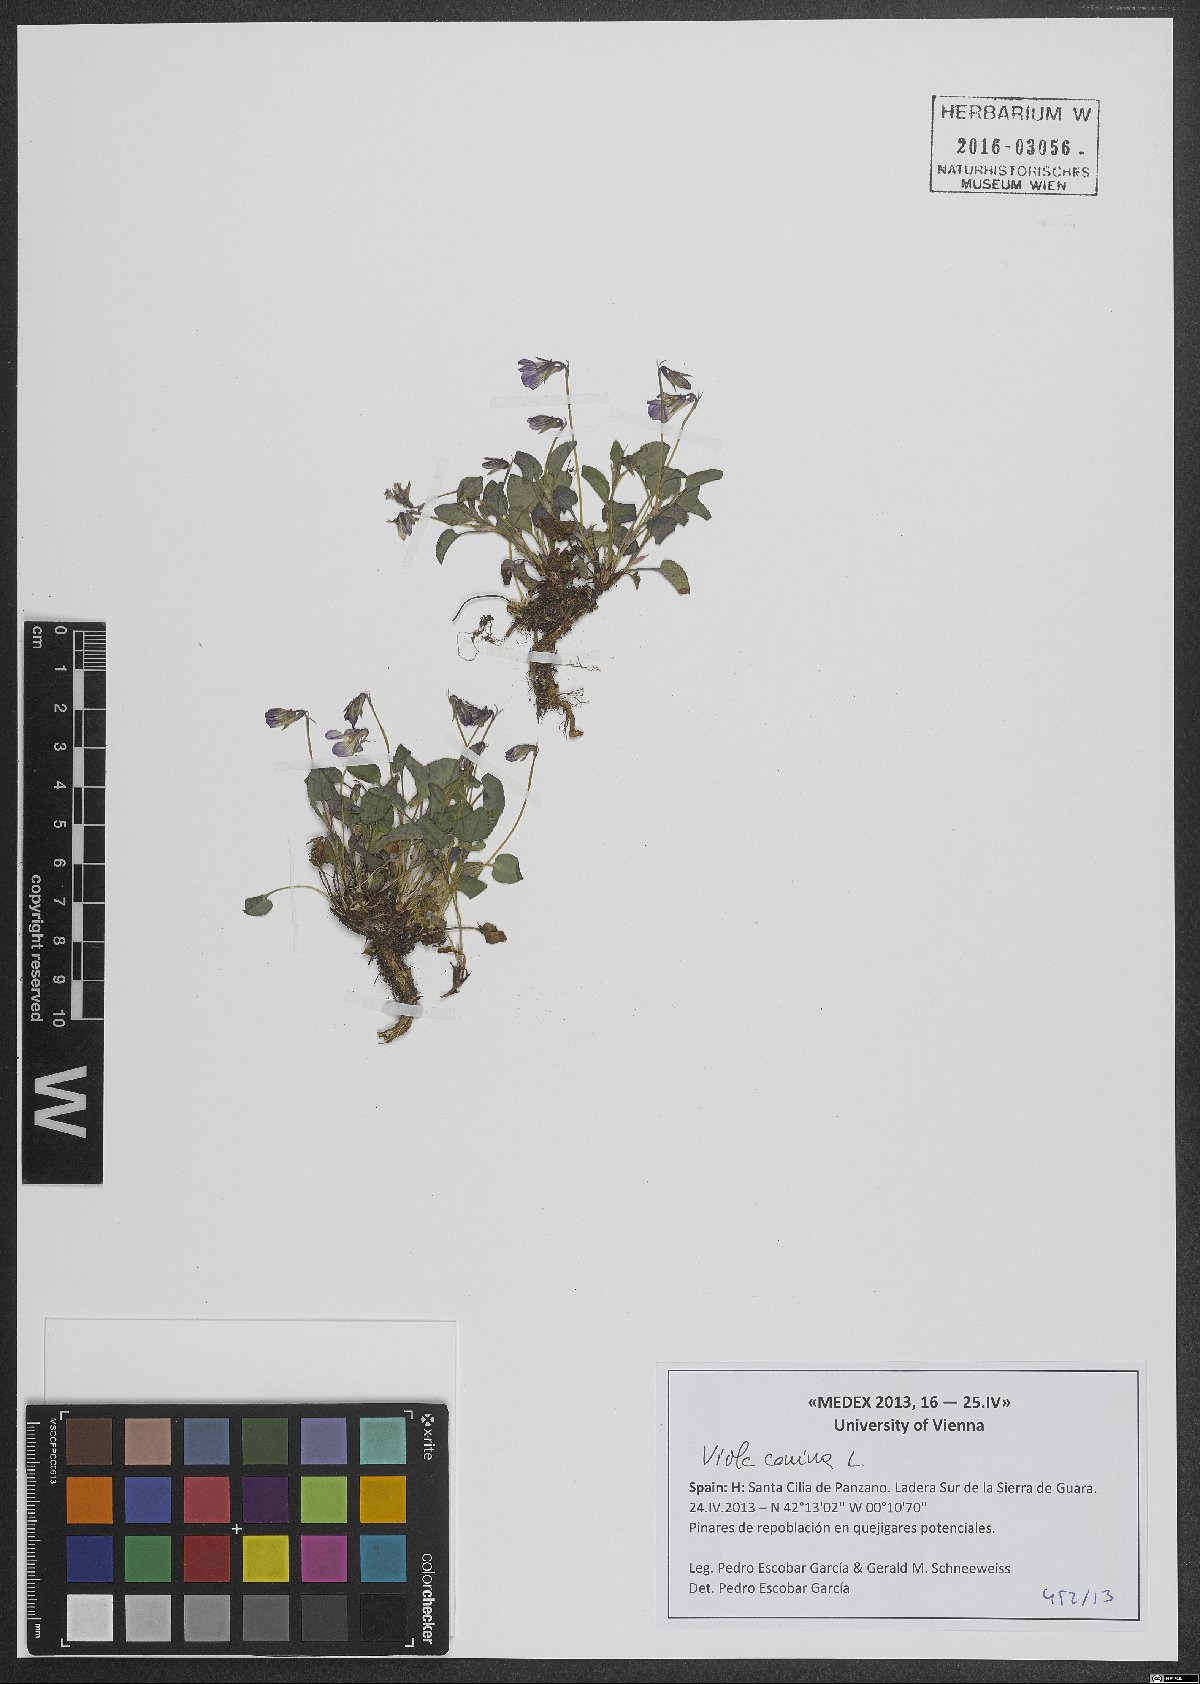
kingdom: Plantae
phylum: Tracheophyta
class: Magnoliopsida
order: Malpighiales
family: Violaceae
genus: Viola
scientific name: Viola canina
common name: Heath dog-violet
